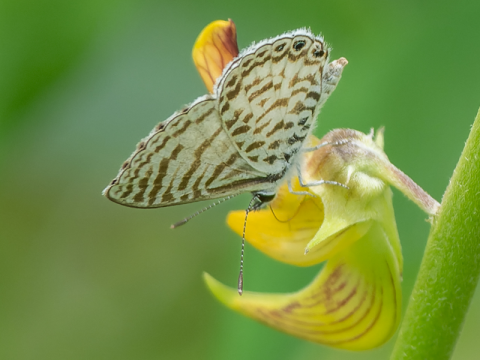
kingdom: Animalia
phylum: Arthropoda
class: Insecta
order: Lepidoptera
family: Lycaenidae
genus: Leptotes
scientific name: Leptotes cassius
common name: Cassius Blue
